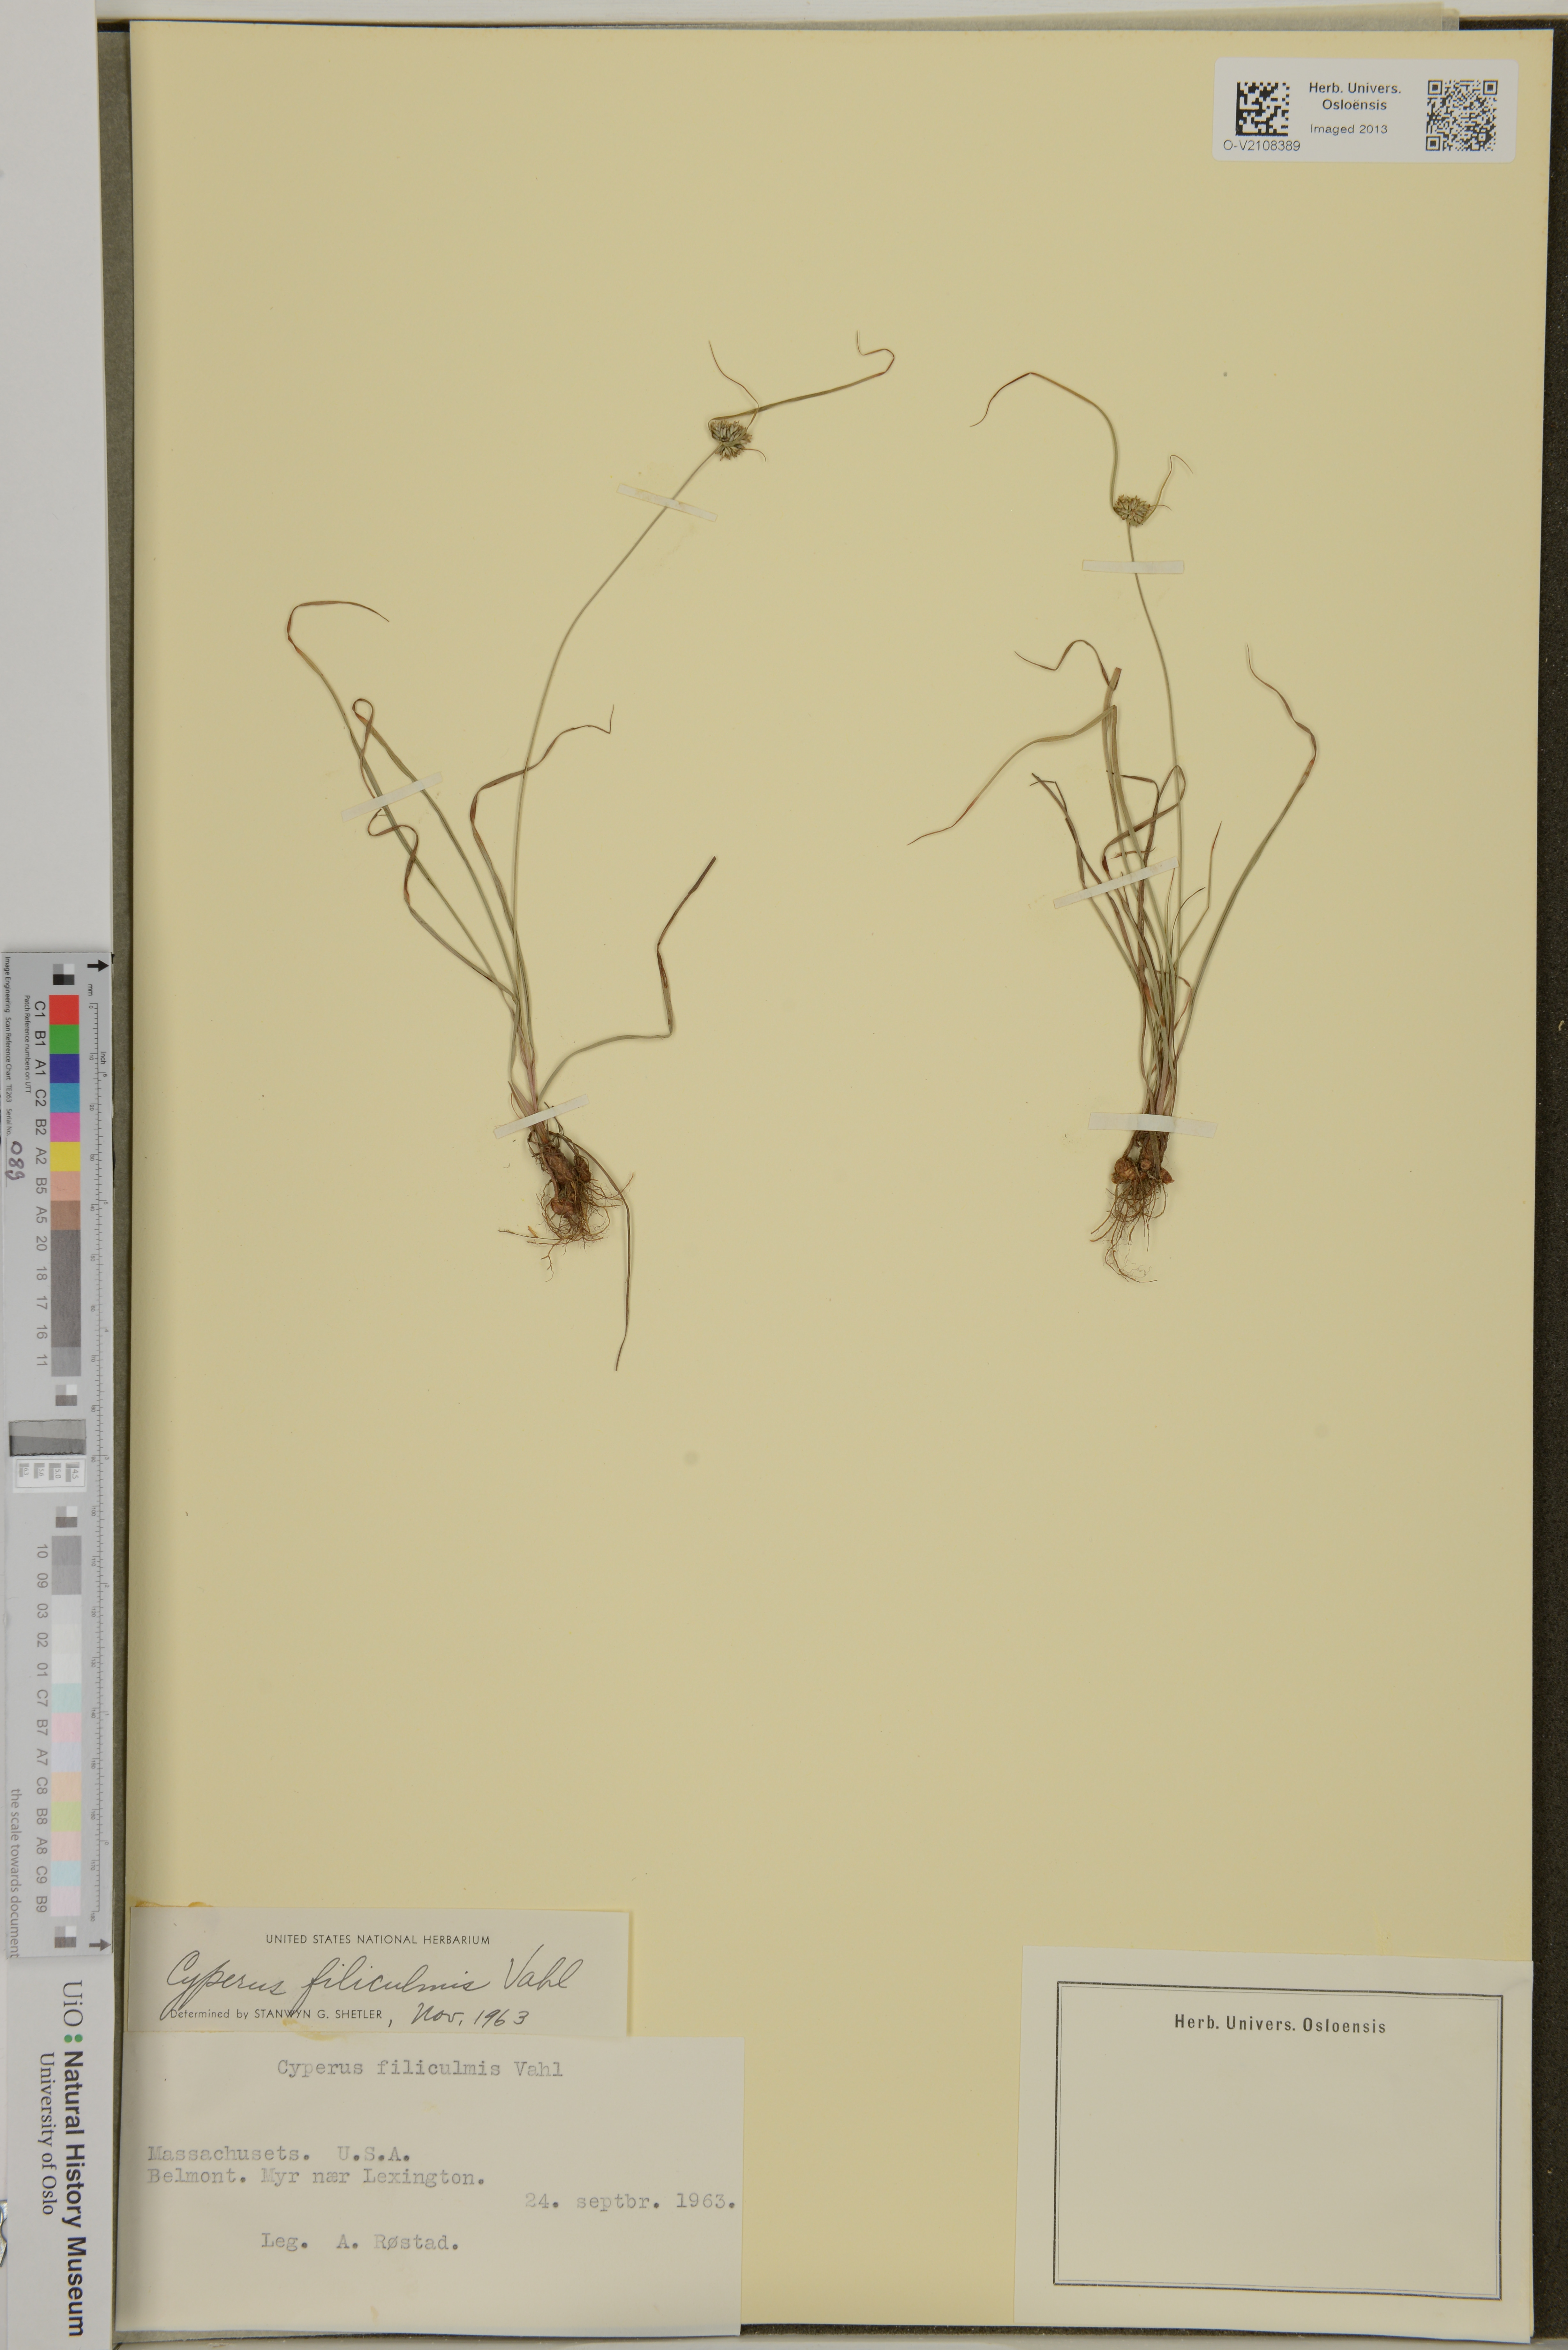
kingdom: Plantae
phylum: Tracheophyta
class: Liliopsida
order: Poales
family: Cyperaceae
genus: Cyperus
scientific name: Cyperus filiculmis
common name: Slender sand sedge
